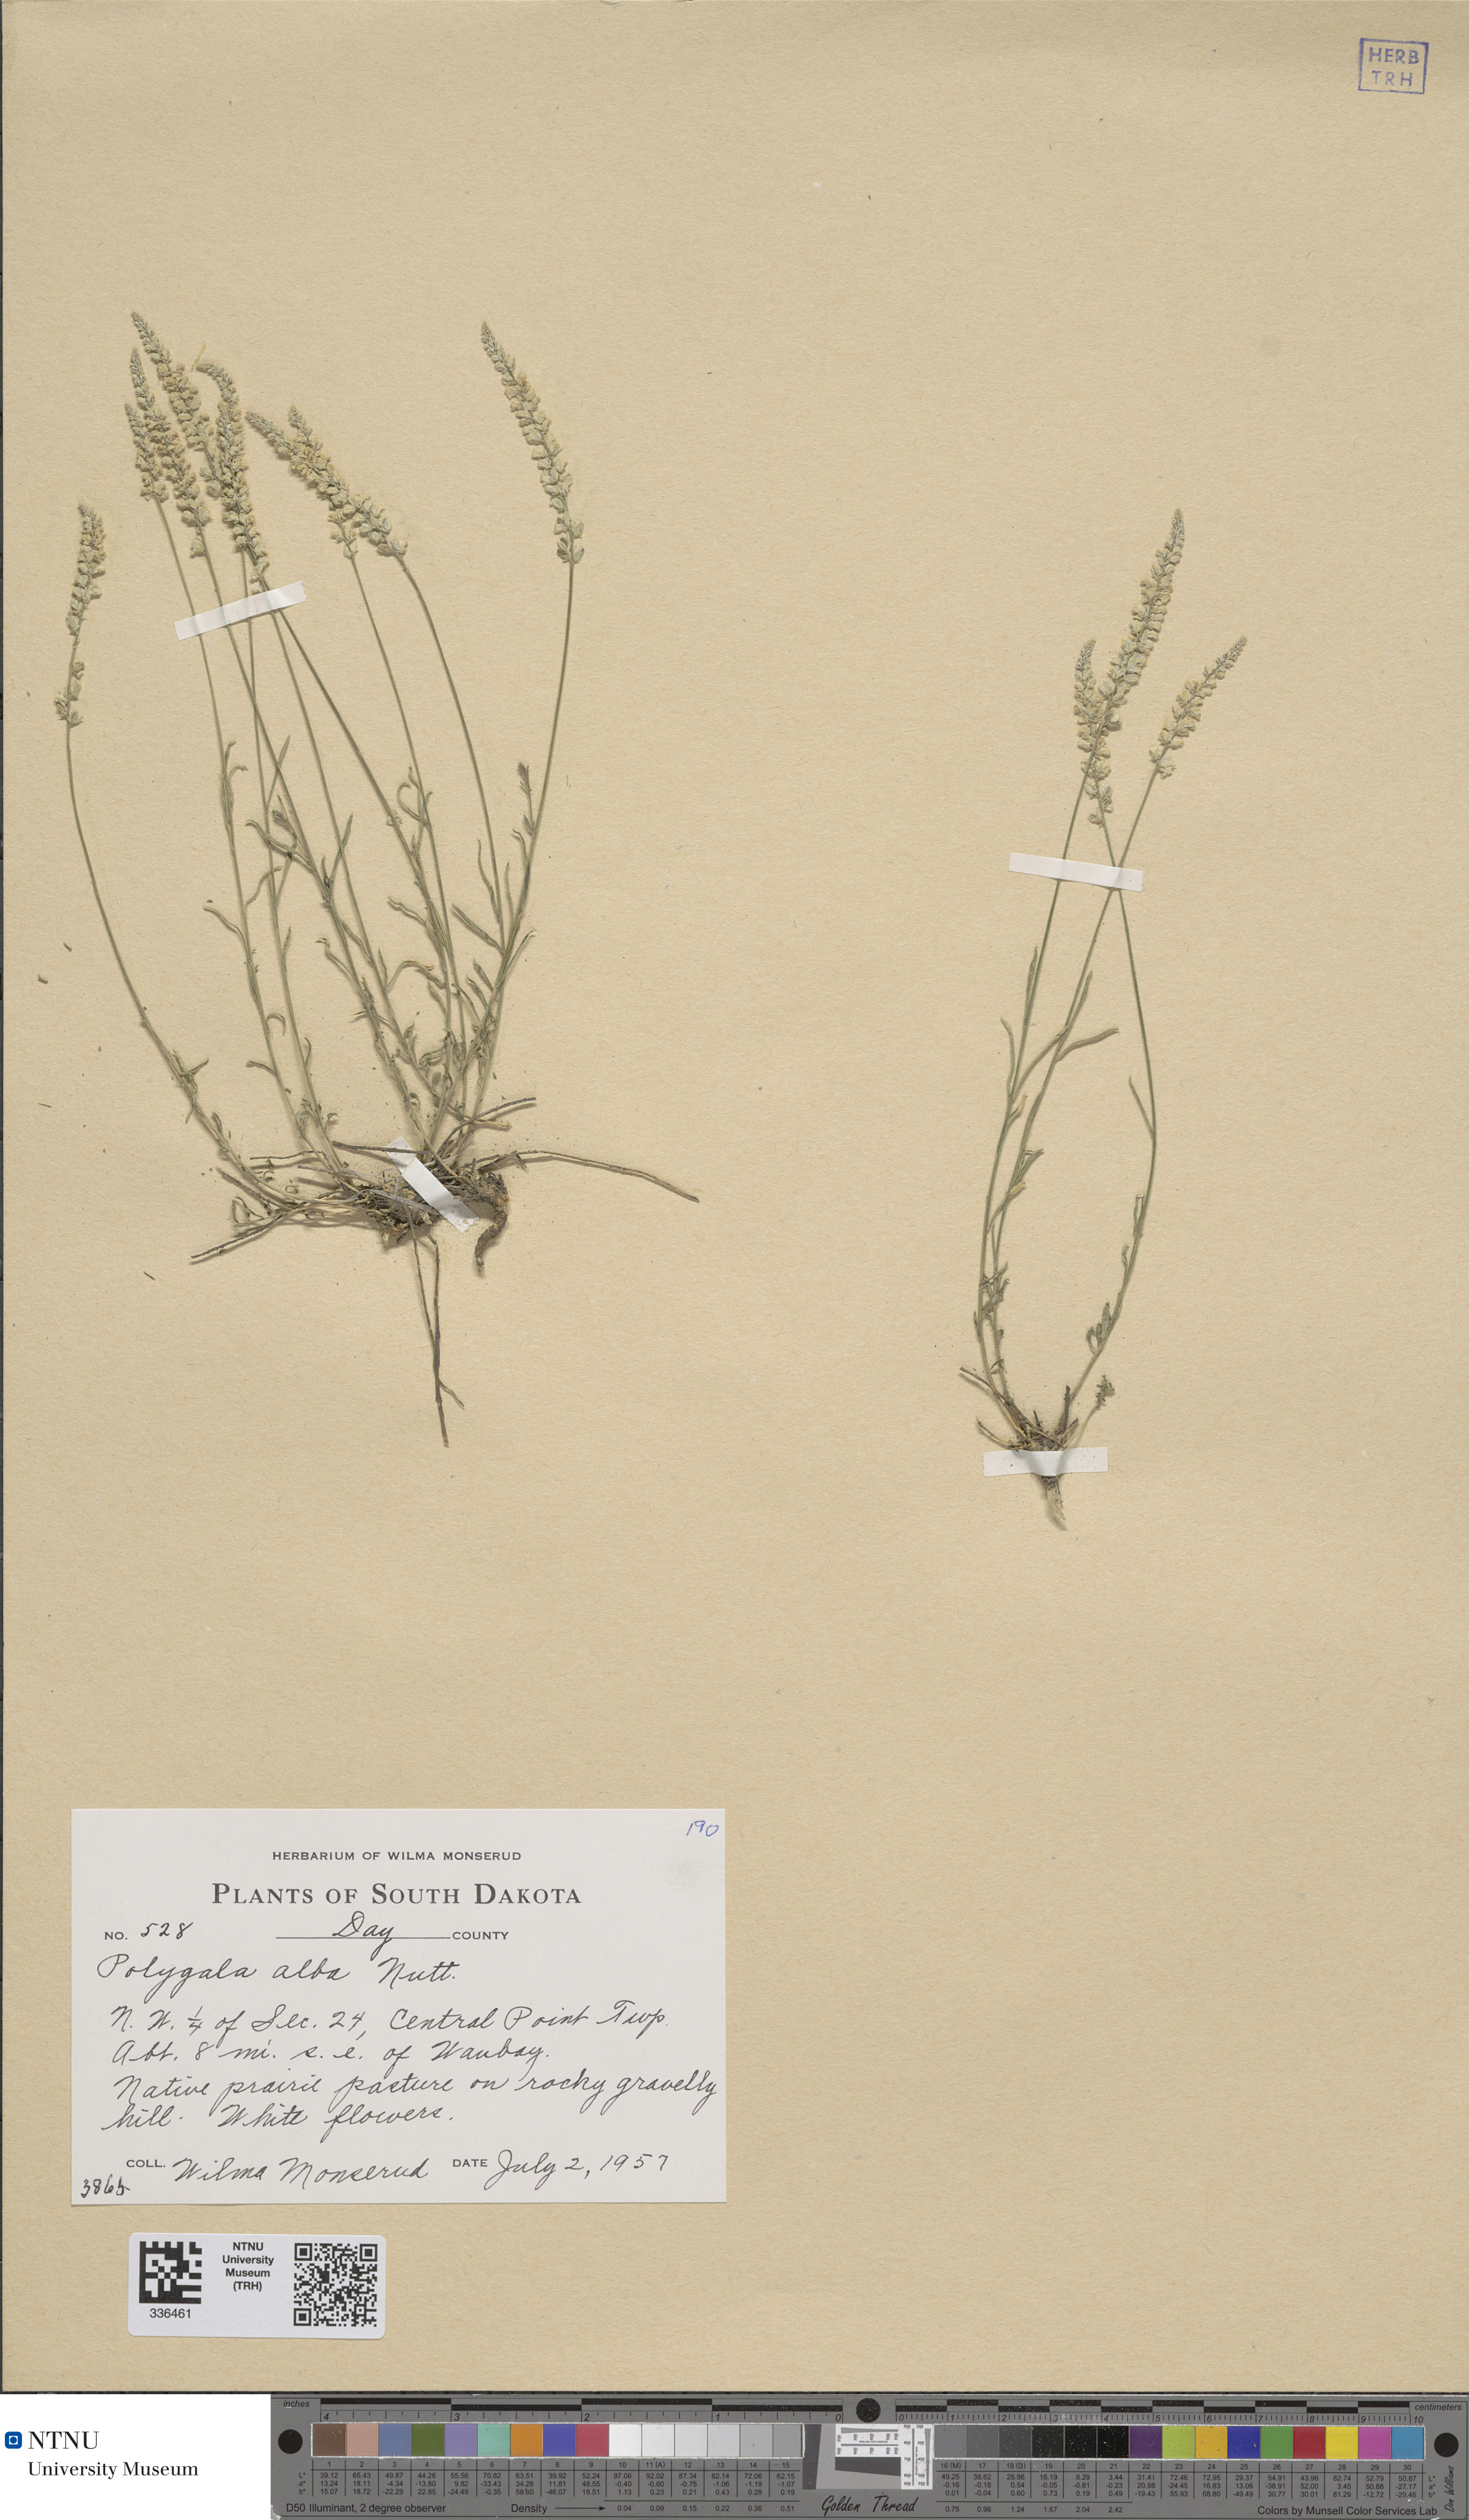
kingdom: Plantae
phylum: Tracheophyta
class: Magnoliopsida
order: Fabales
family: Polygalaceae
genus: Polygala
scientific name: Polygala alba
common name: White milkwort
